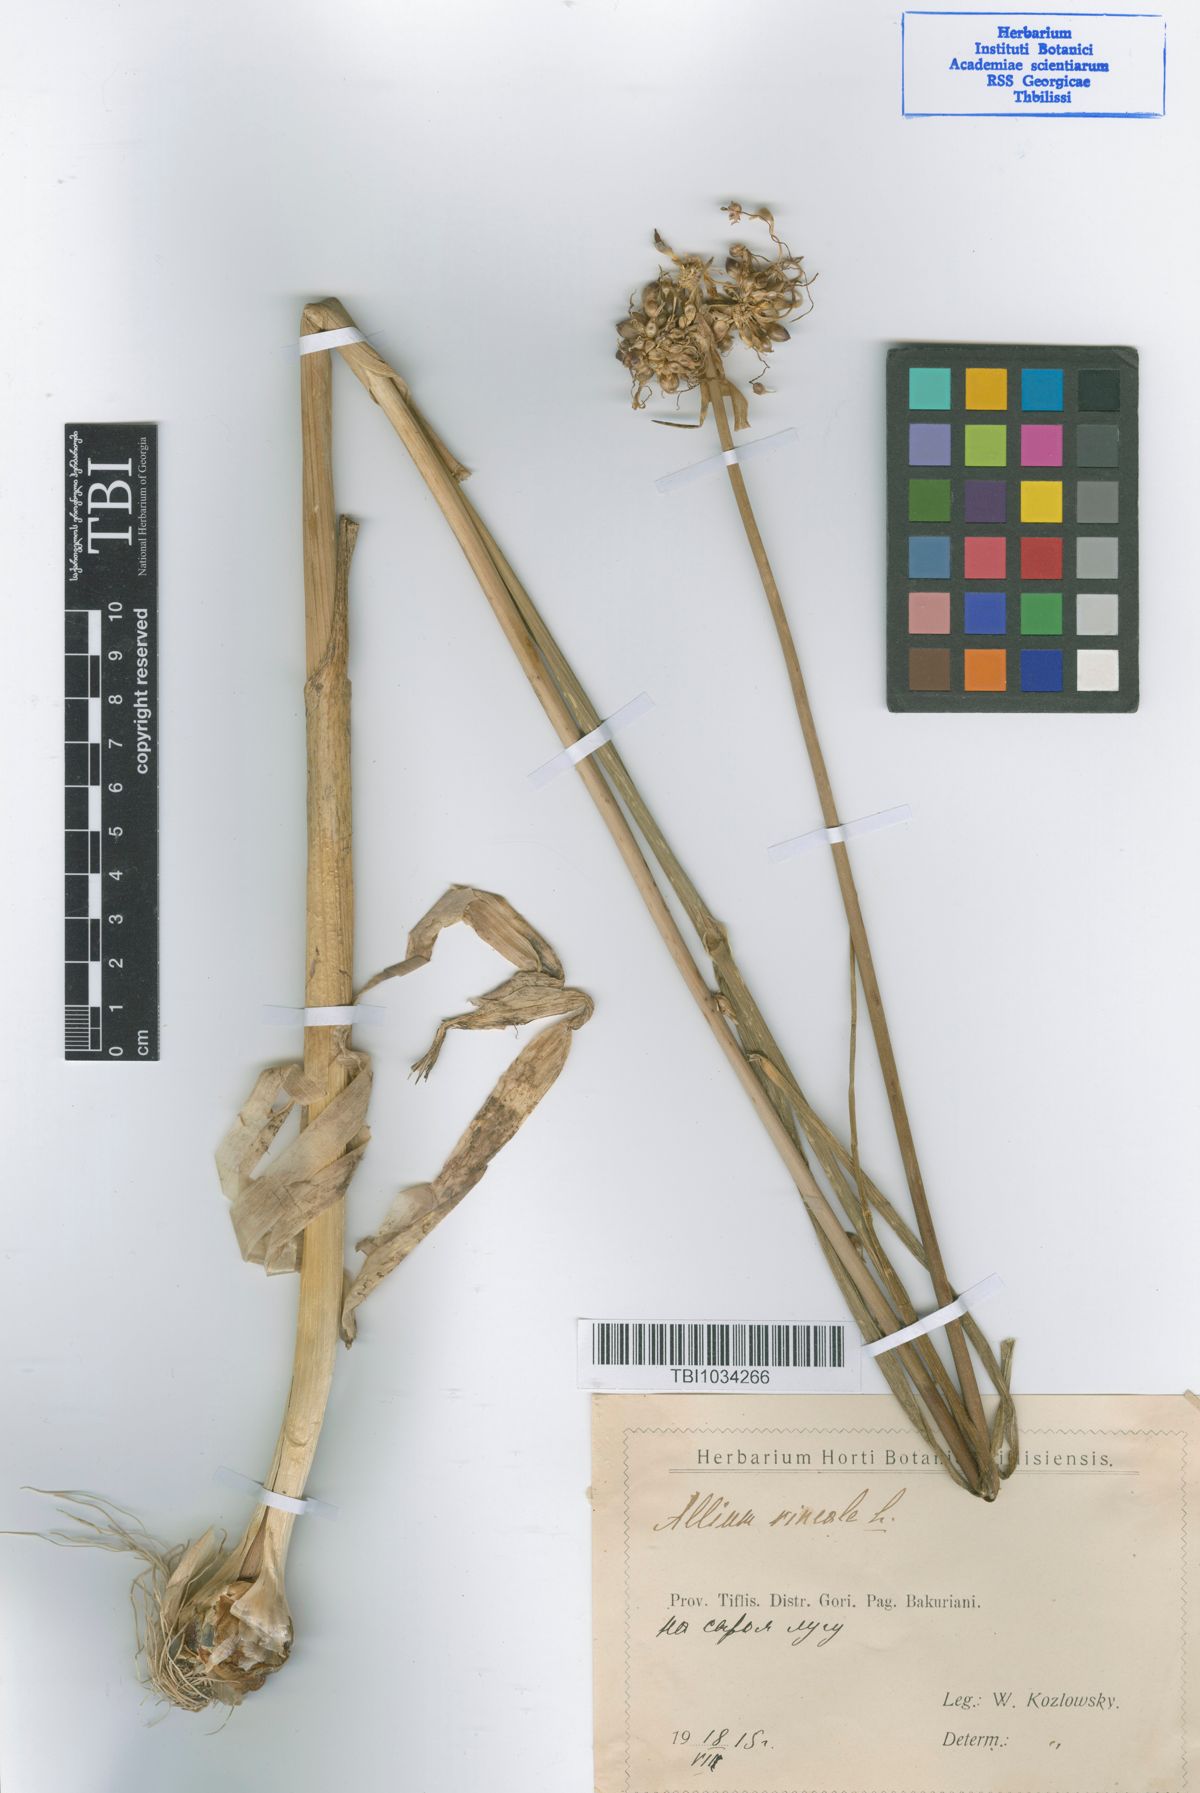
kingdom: Plantae
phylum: Tracheophyta
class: Liliopsida
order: Asparagales
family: Amaryllidaceae
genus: Allium
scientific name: Allium vineale
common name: Crow garlic
